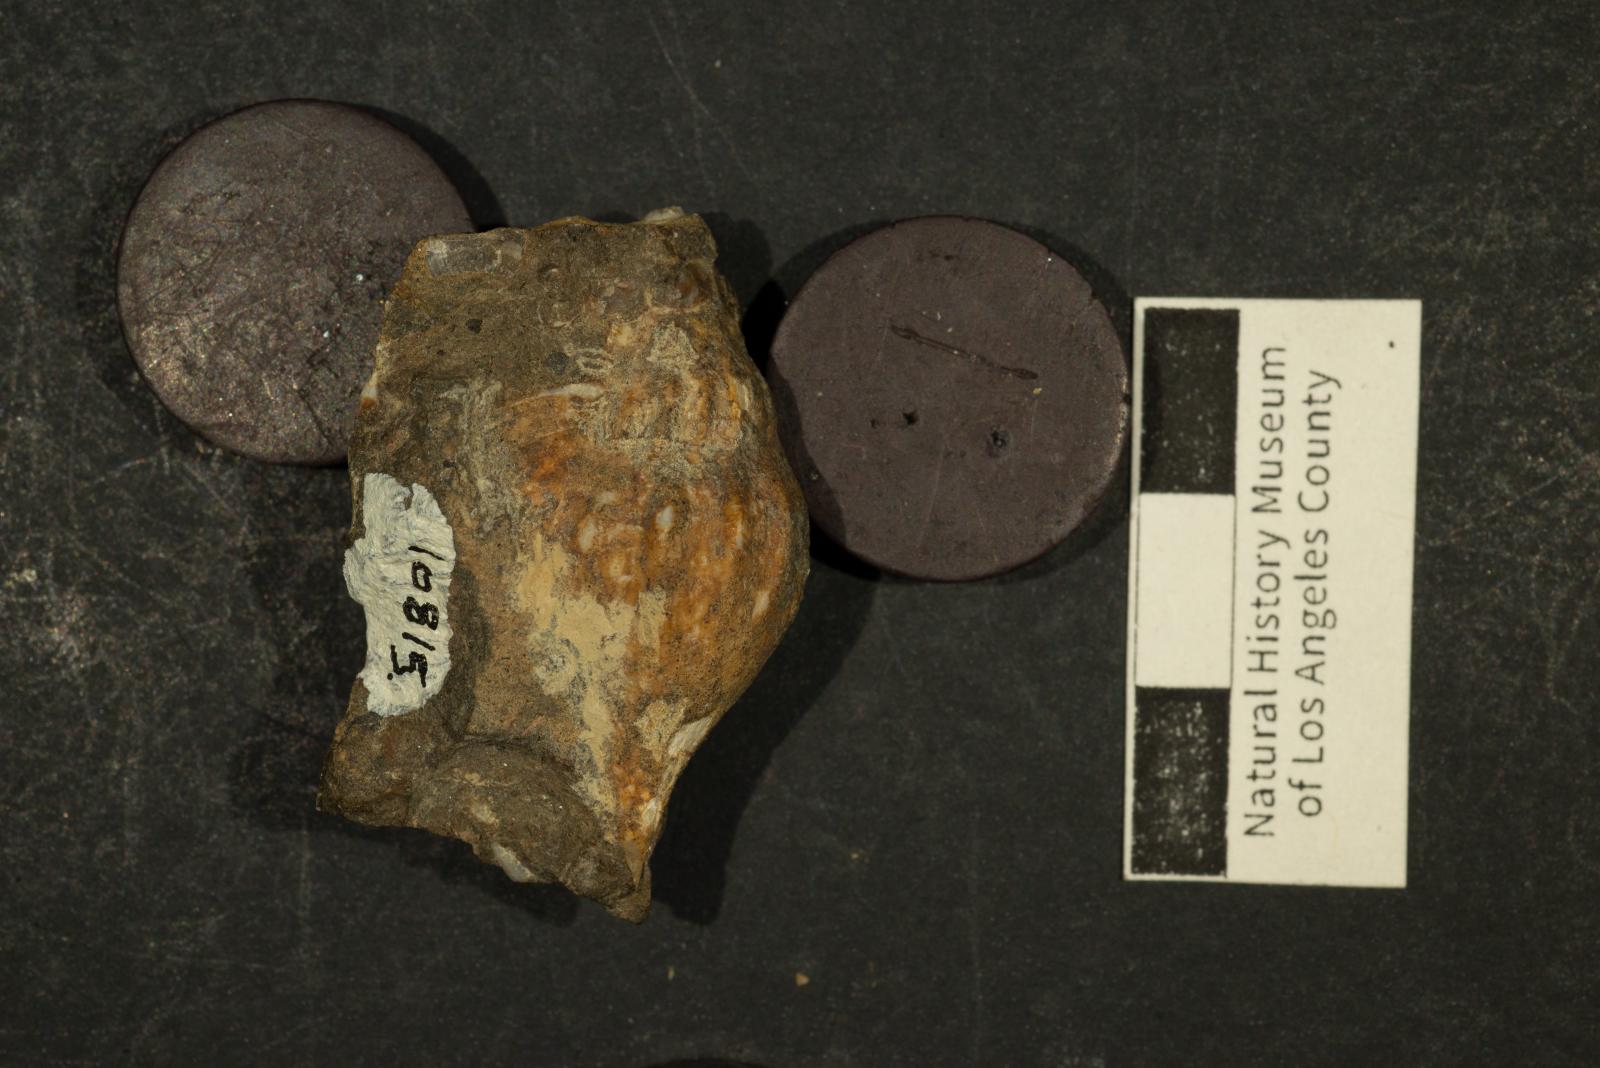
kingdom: Animalia
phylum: Mollusca
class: Gastropoda
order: Littorinimorpha
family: Aporrhaidae
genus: Latiala
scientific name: Latiala Aporrhais californica
